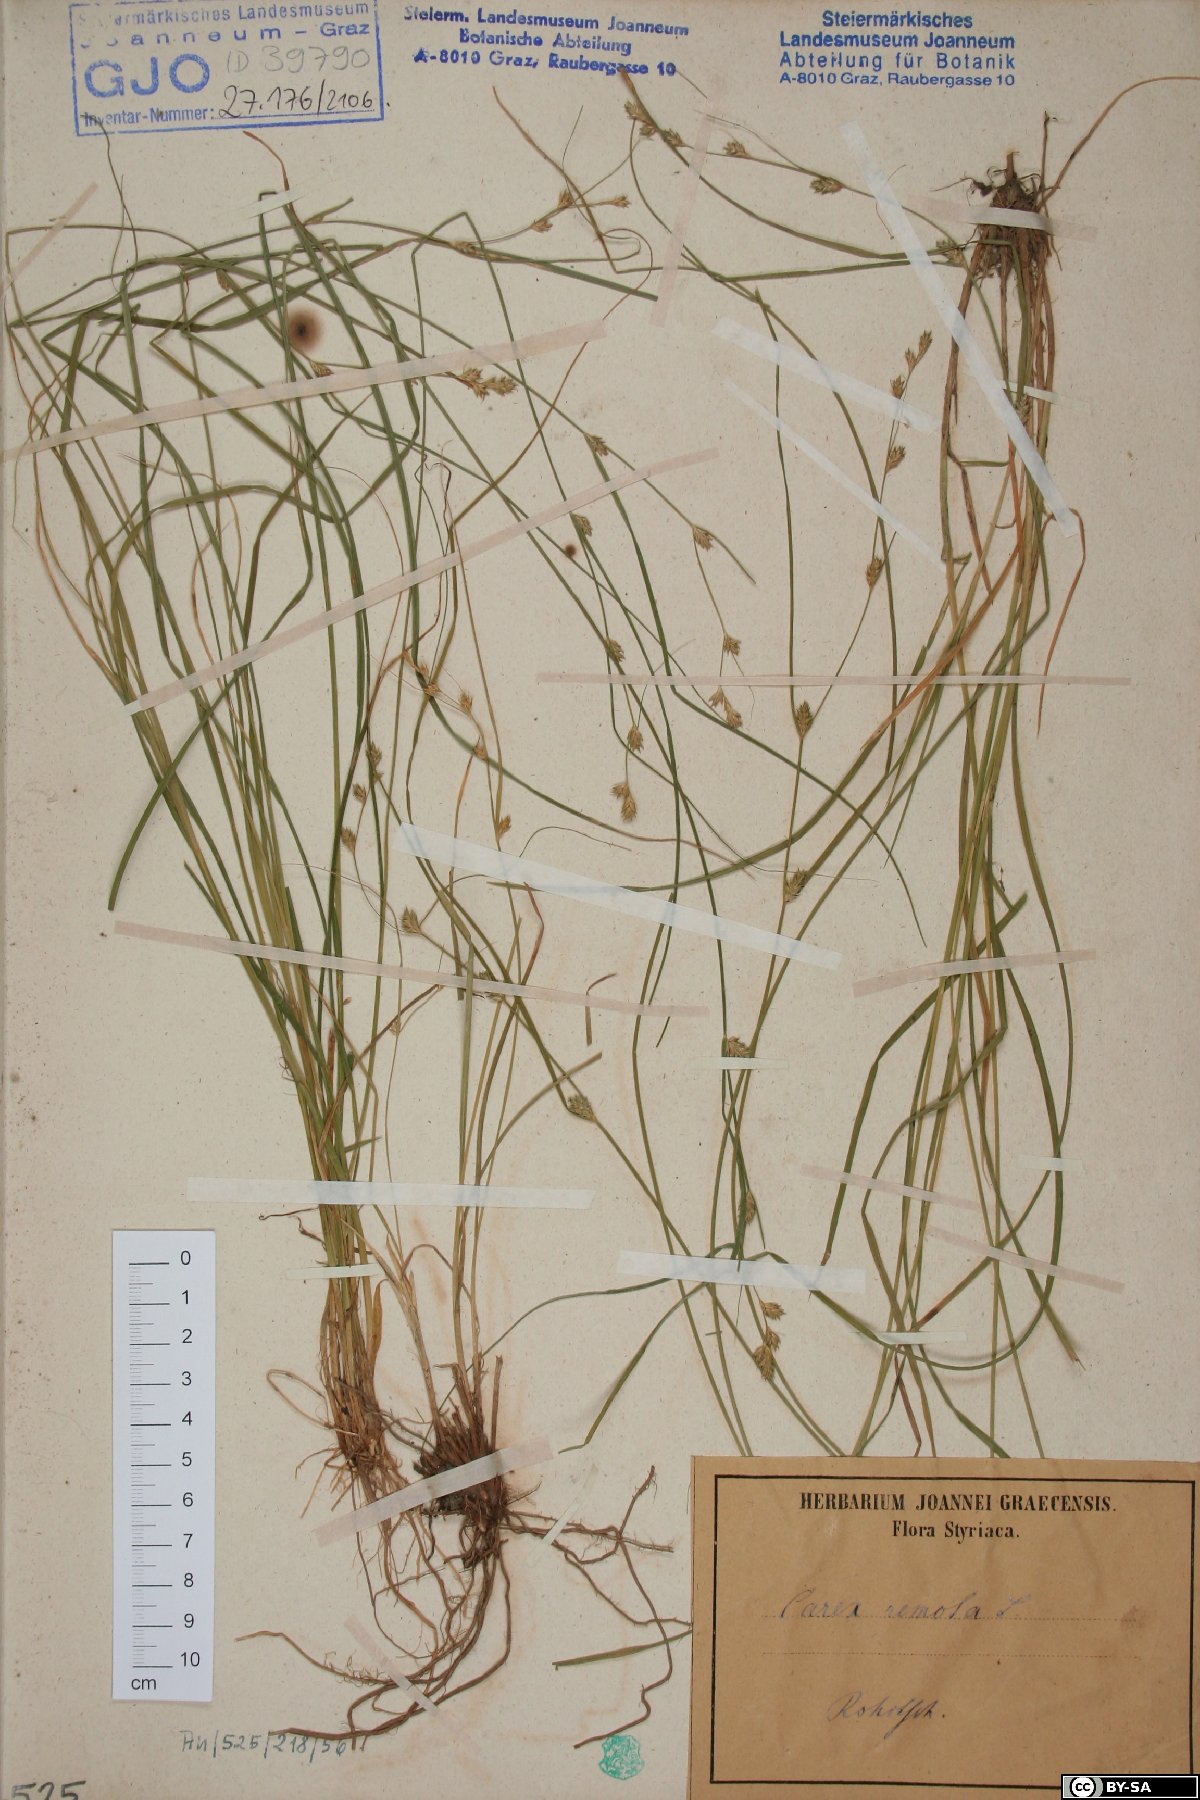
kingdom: Plantae
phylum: Tracheophyta
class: Liliopsida
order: Poales
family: Cyperaceae
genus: Carex
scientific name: Carex remota
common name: Remote sedge
